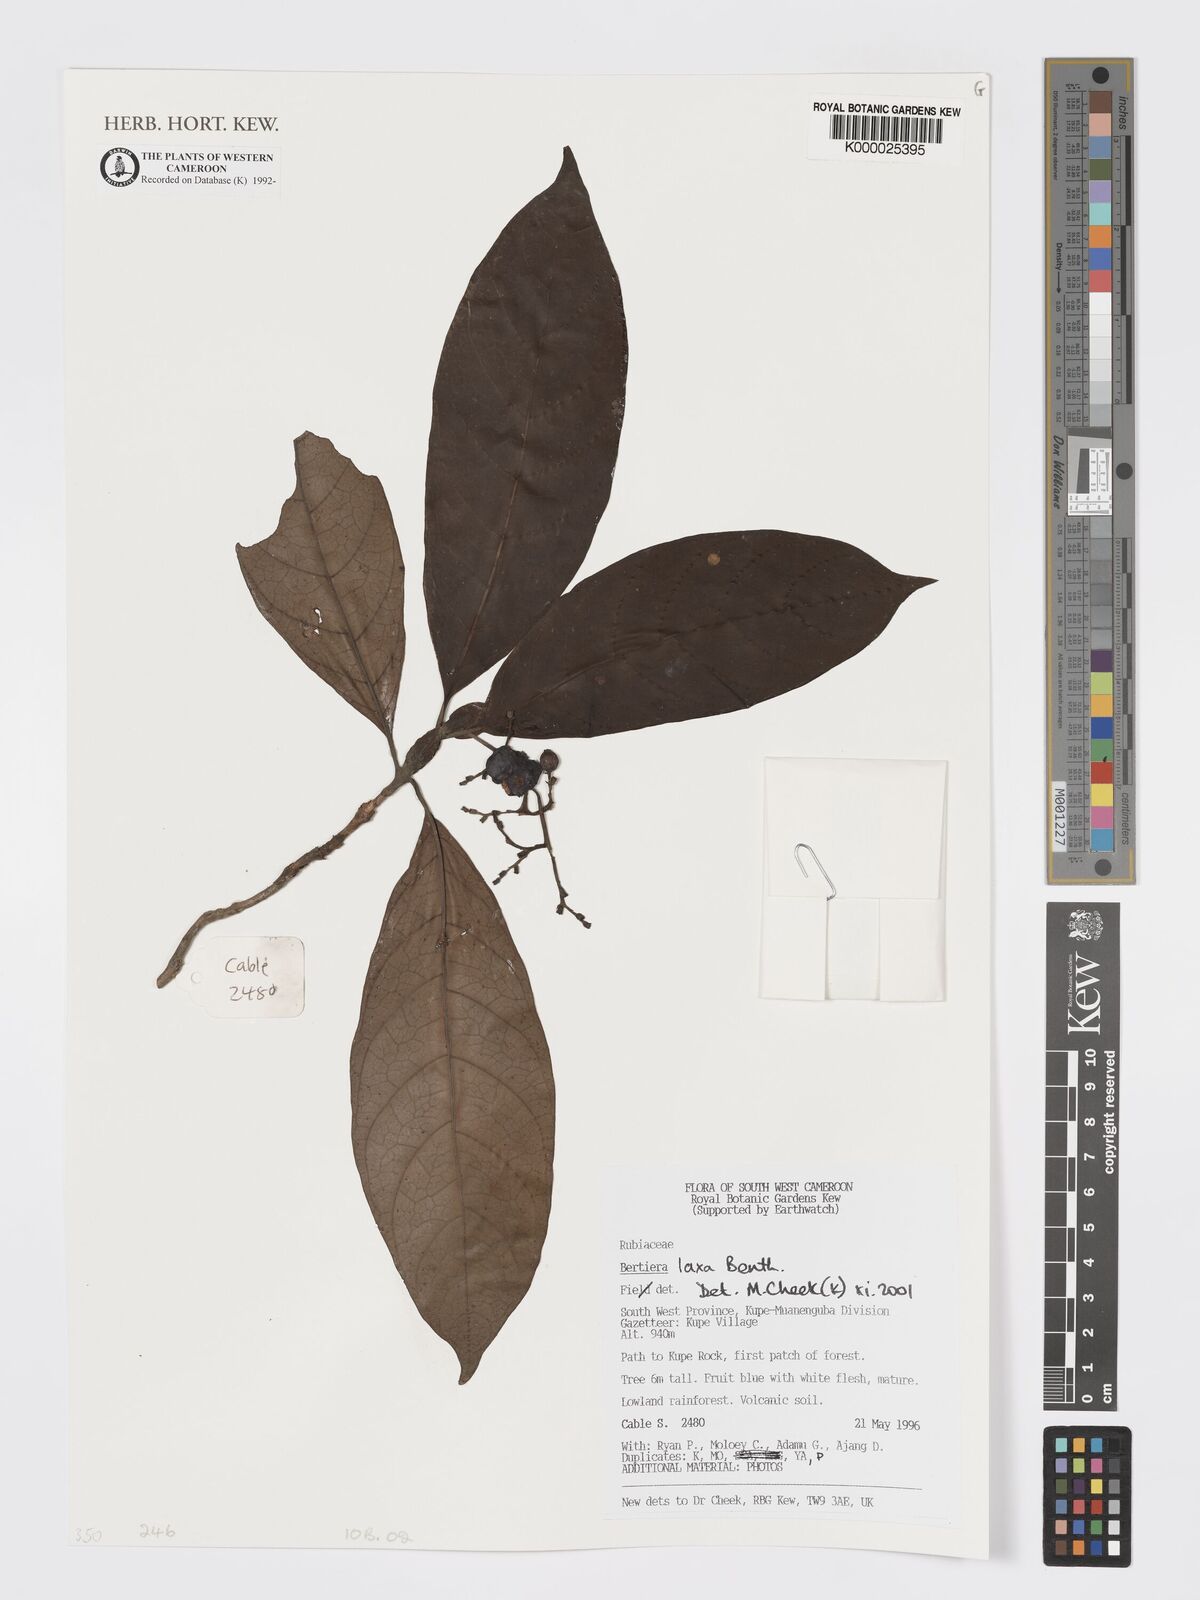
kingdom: Plantae
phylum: Tracheophyta
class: Magnoliopsida
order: Gentianales
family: Rubiaceae
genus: Bertiera
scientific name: Bertiera laxa
